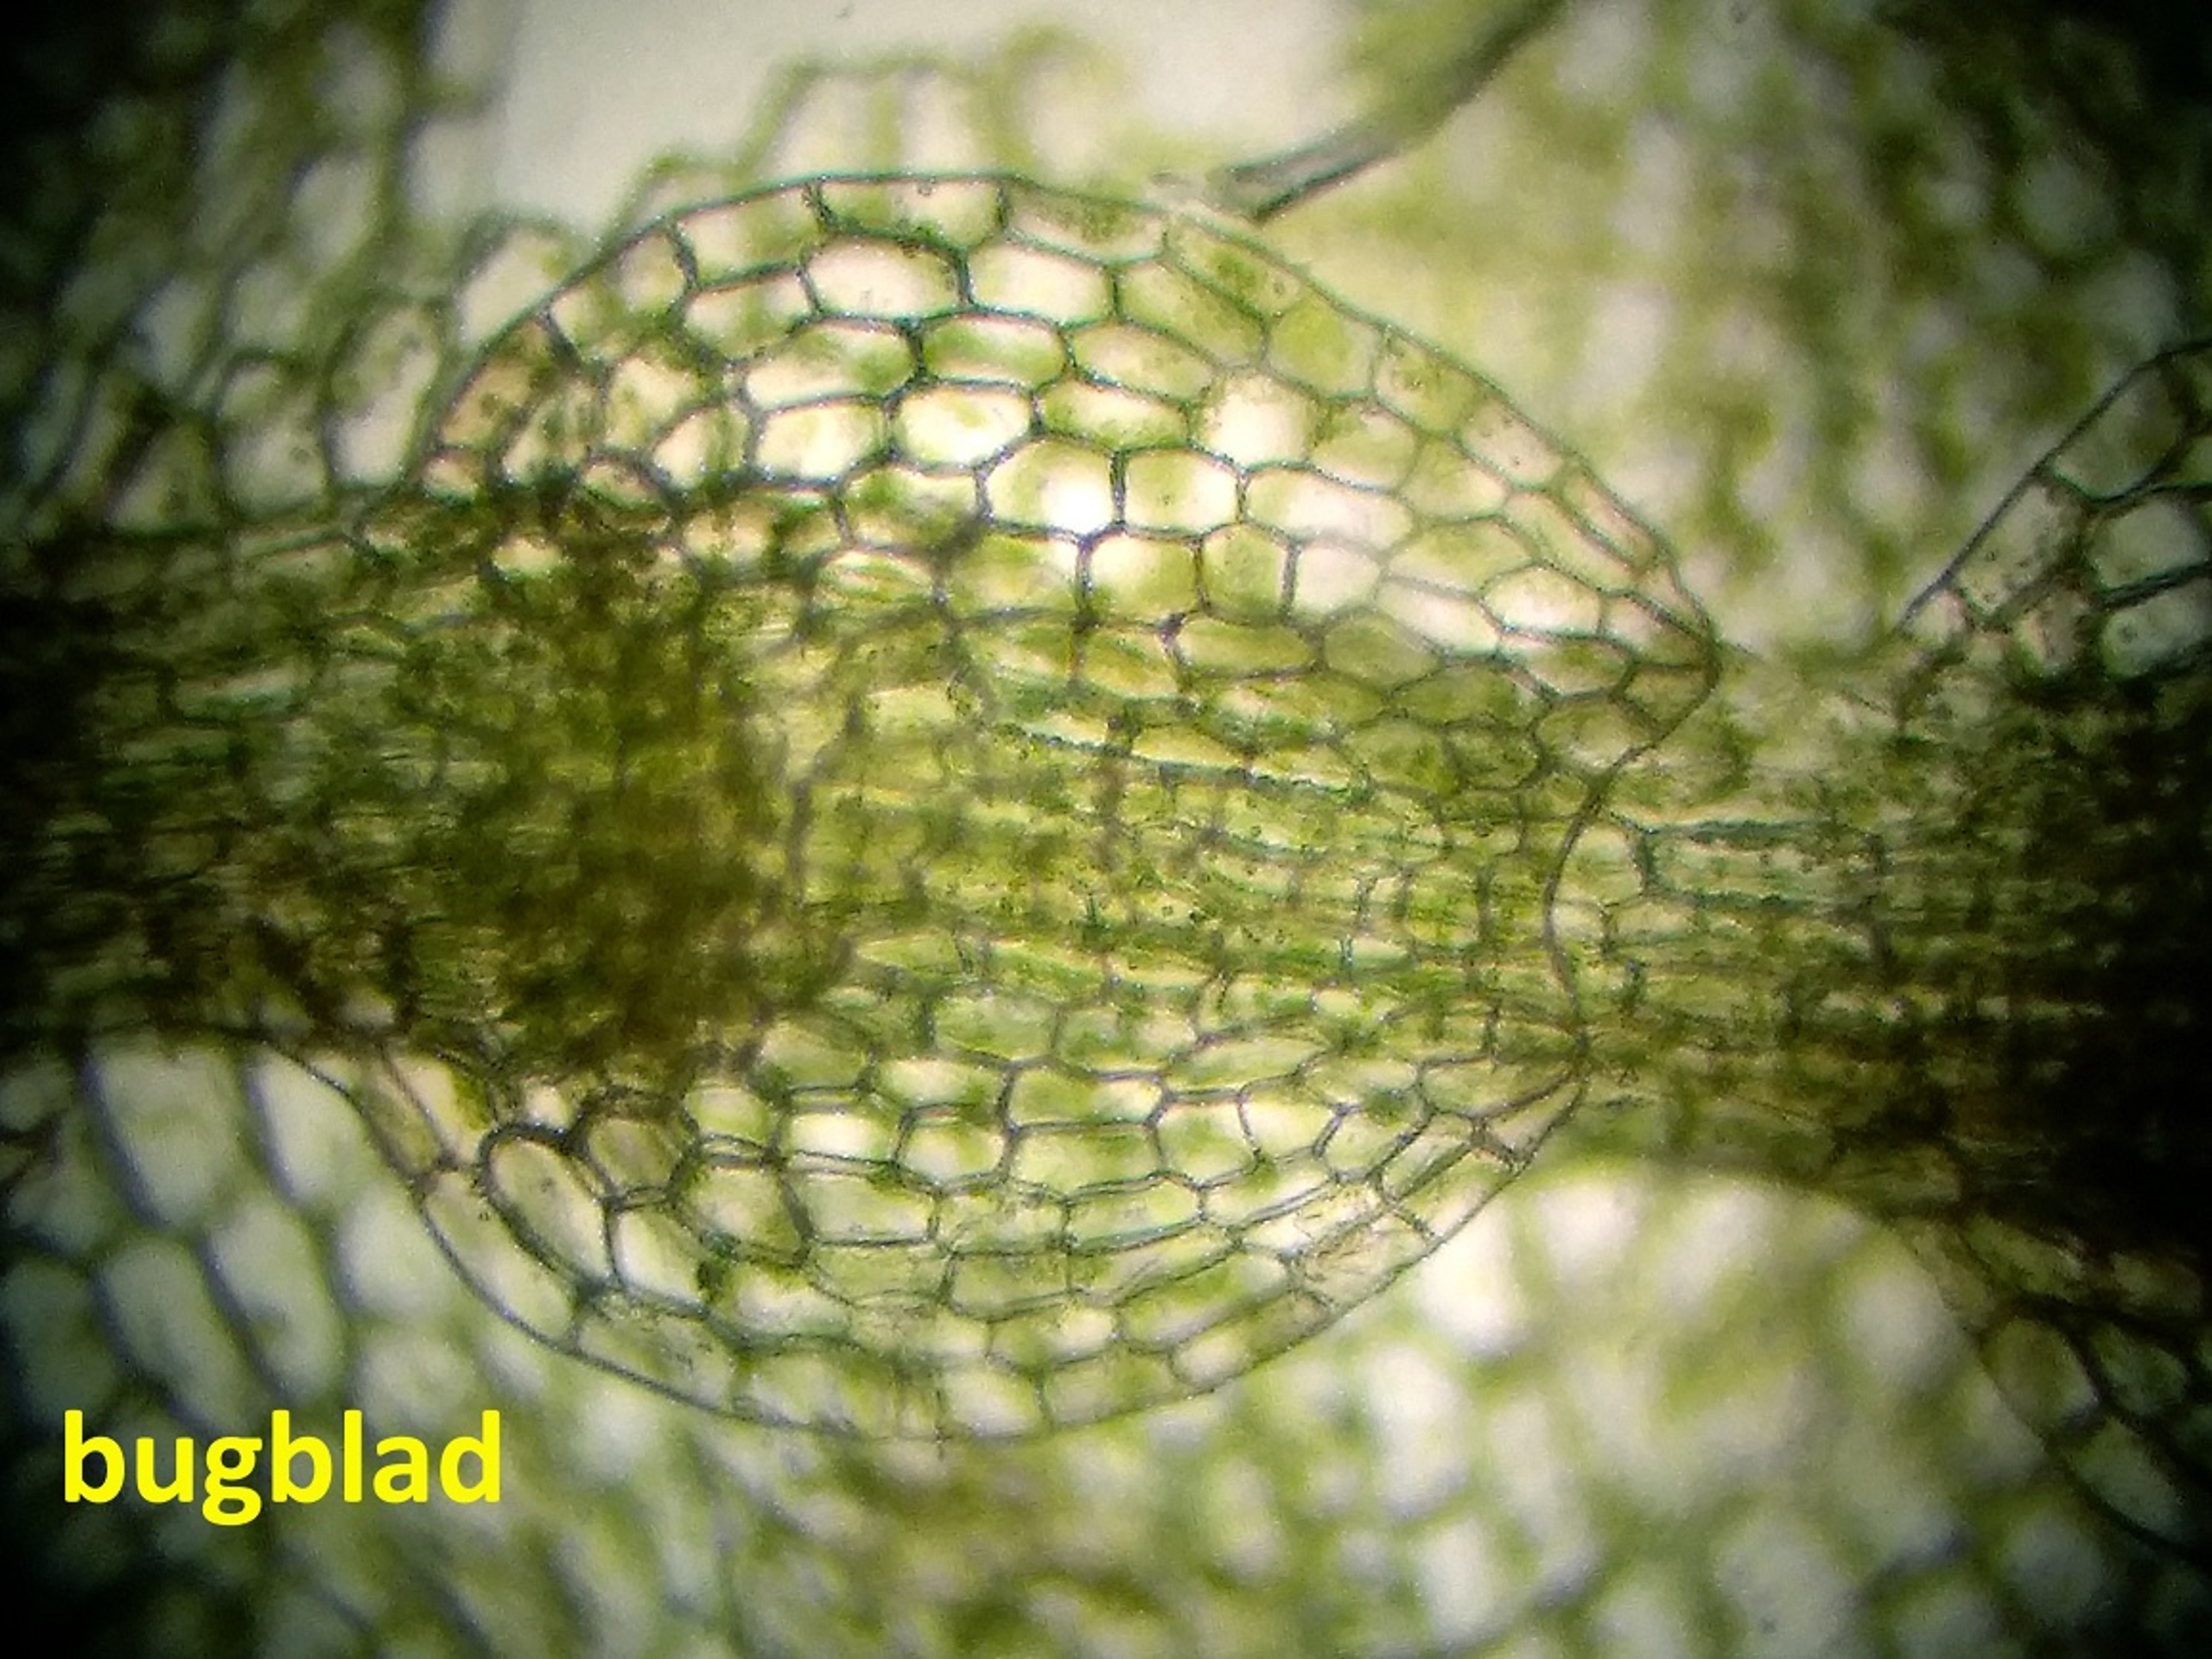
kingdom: Plantae
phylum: Marchantiophyta
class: Jungermanniopsida
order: Jungermanniales
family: Calypogeiaceae
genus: Calypogeia
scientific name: Calypogeia integristipula
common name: Udelt sækmos
